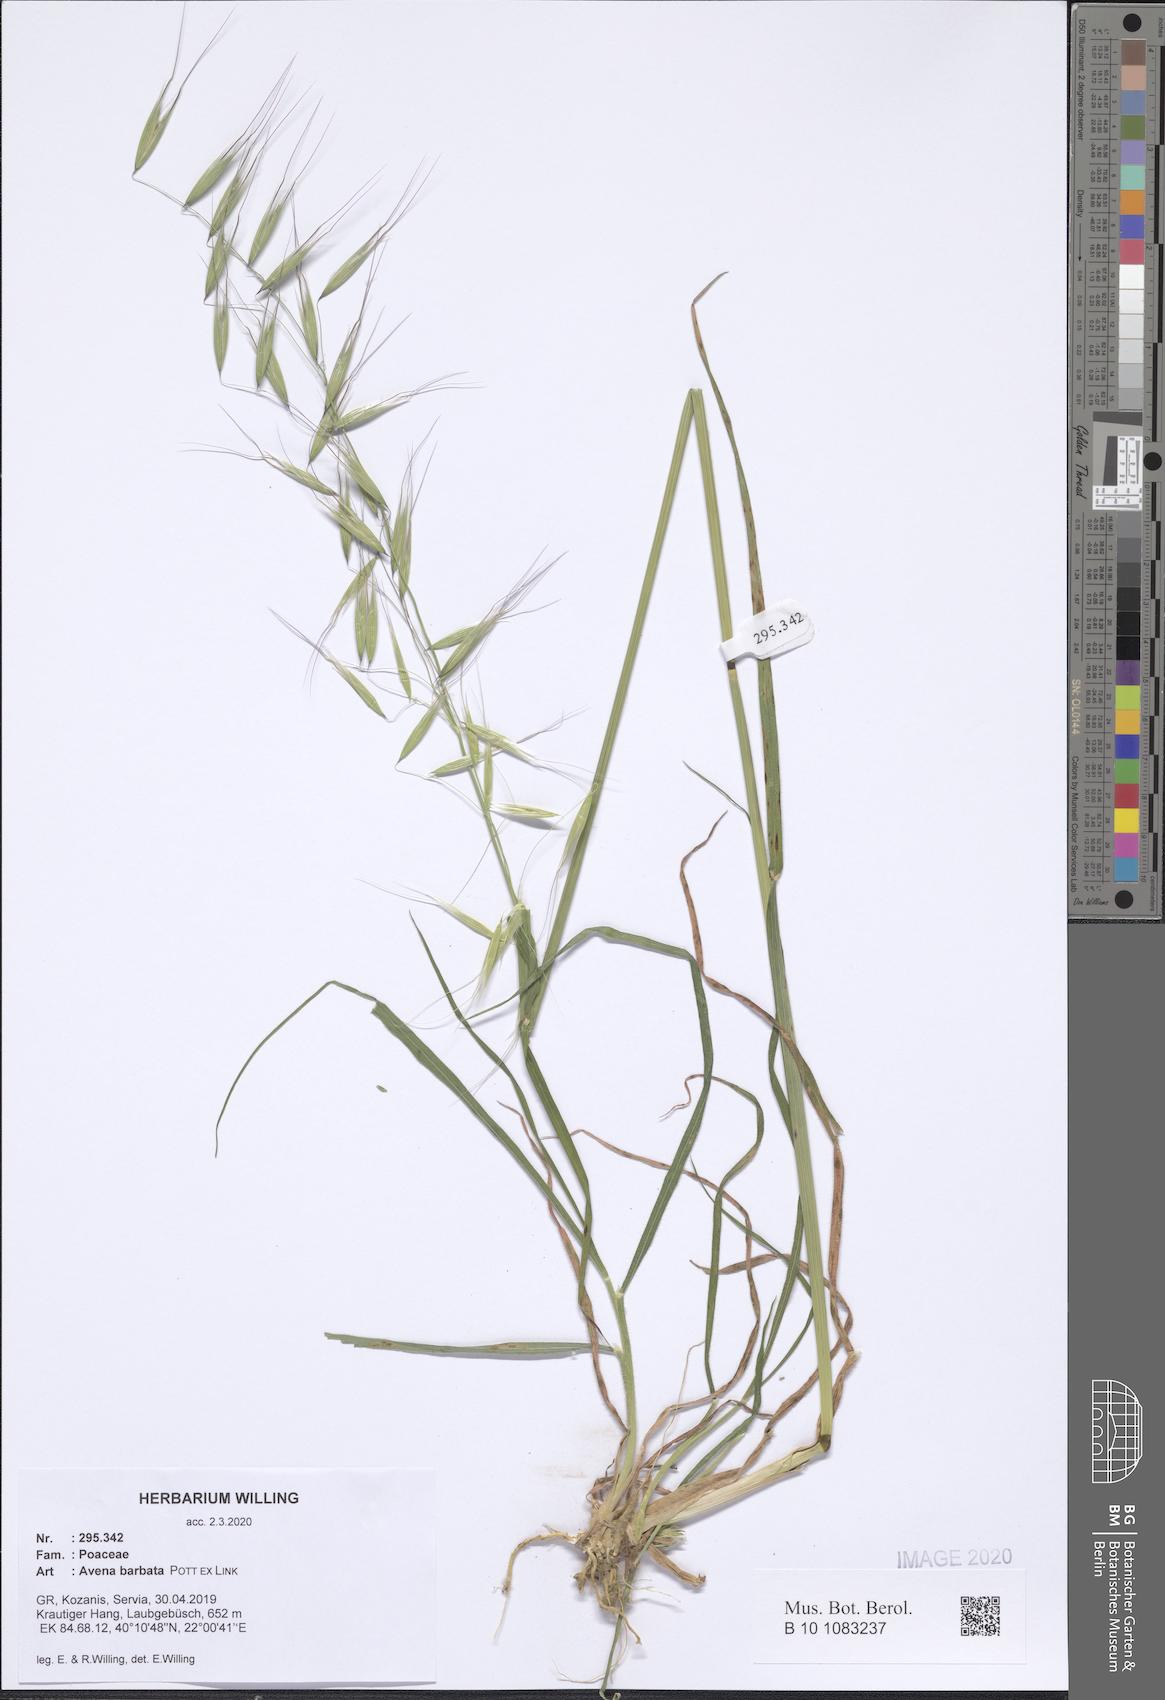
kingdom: Plantae
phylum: Tracheophyta
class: Liliopsida
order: Poales
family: Poaceae
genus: Avena
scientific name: Avena barbata
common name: Slender oat
